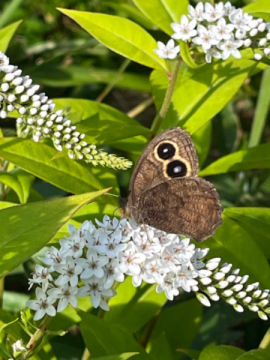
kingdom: Animalia
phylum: Arthropoda
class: Insecta
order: Lepidoptera
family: Nymphalidae
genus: Cercyonis
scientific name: Cercyonis pegala
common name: Common Wood-Nymph
